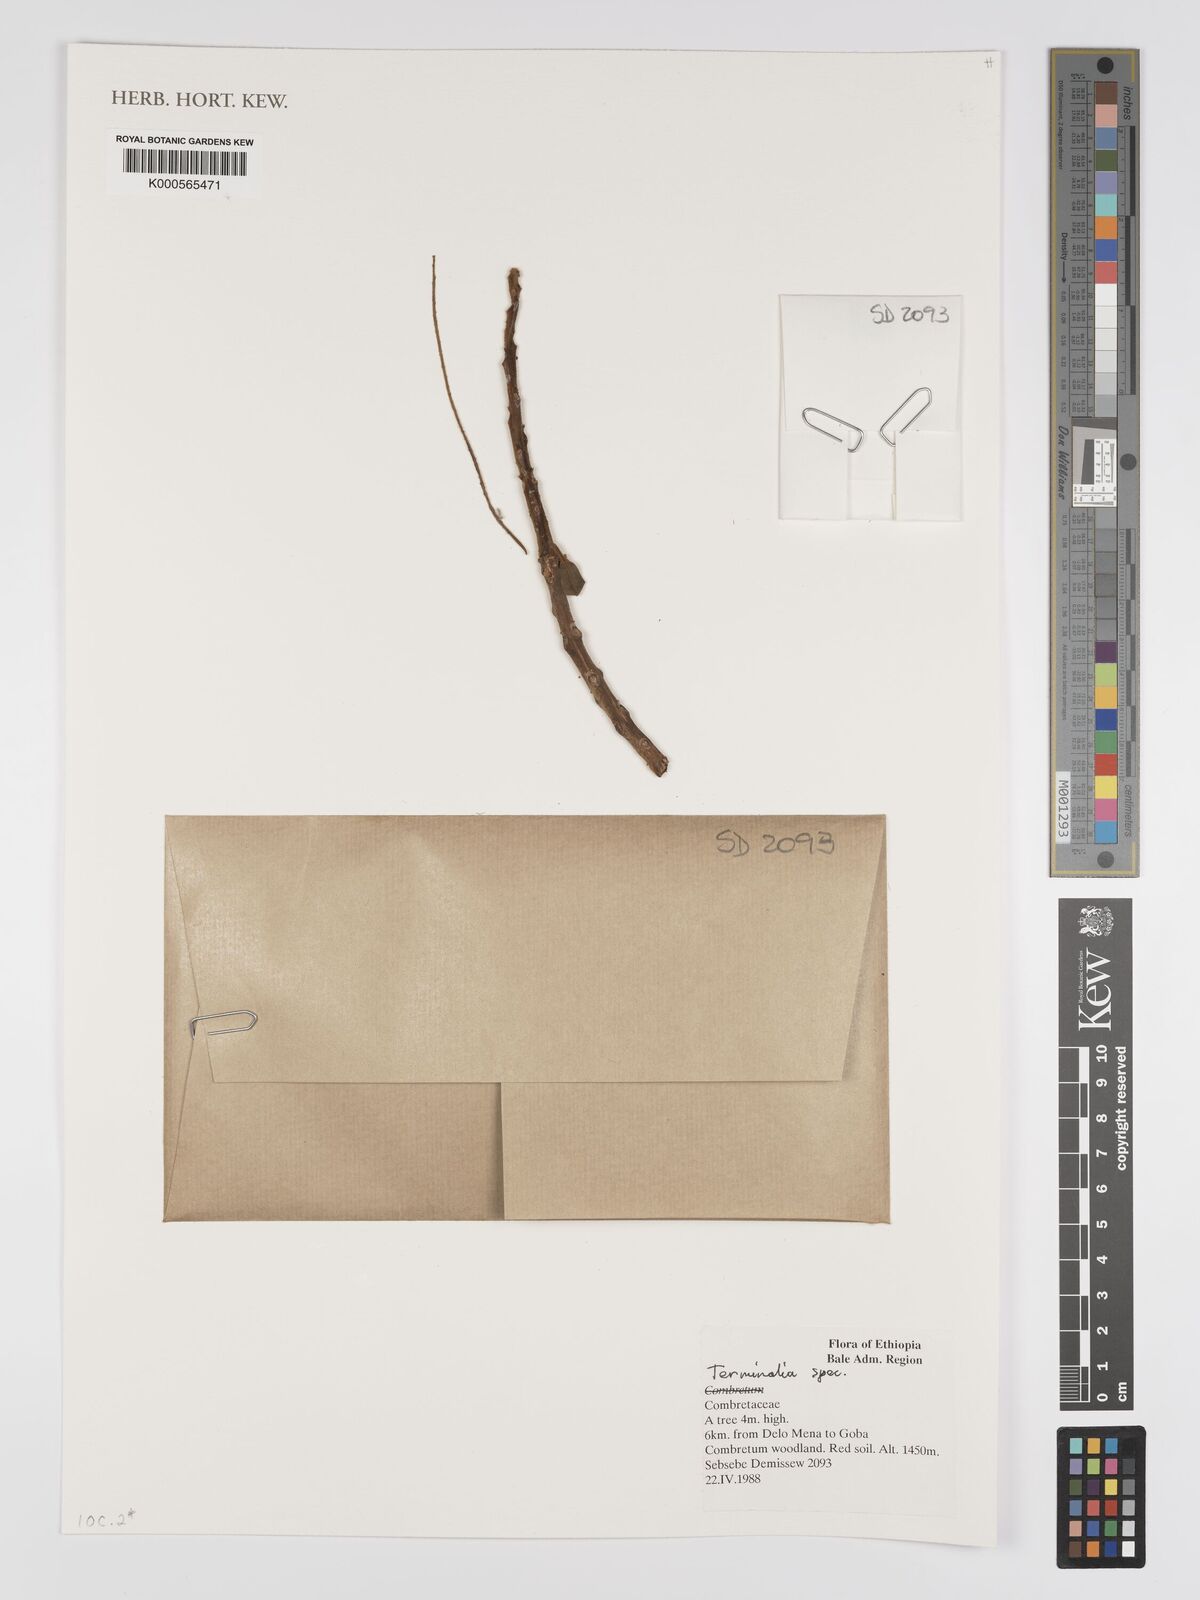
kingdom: Plantae
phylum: Tracheophyta
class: Magnoliopsida
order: Myrtales
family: Combretaceae
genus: Terminalia
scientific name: Terminalia
